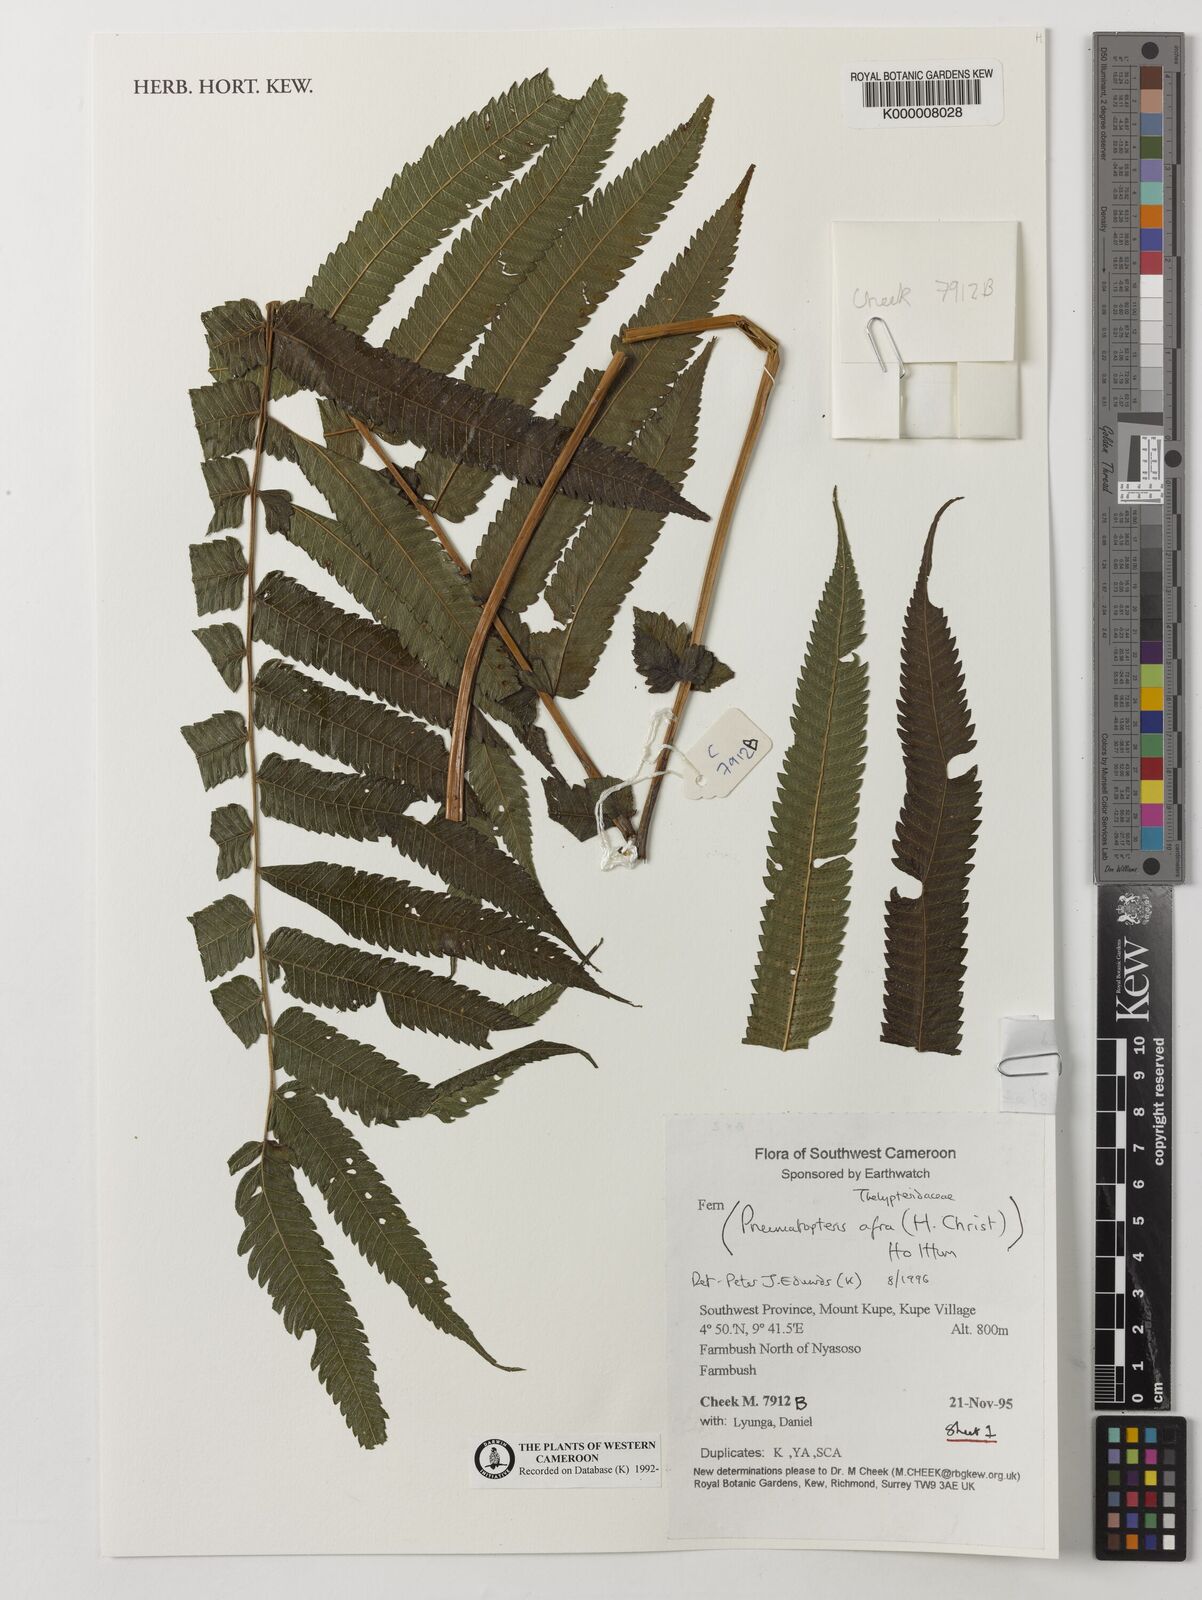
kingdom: Plantae
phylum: Tracheophyta
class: Polypodiopsida
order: Polypodiales
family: Thelypteridaceae
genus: Abacopteris
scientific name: Abacopteris afra
